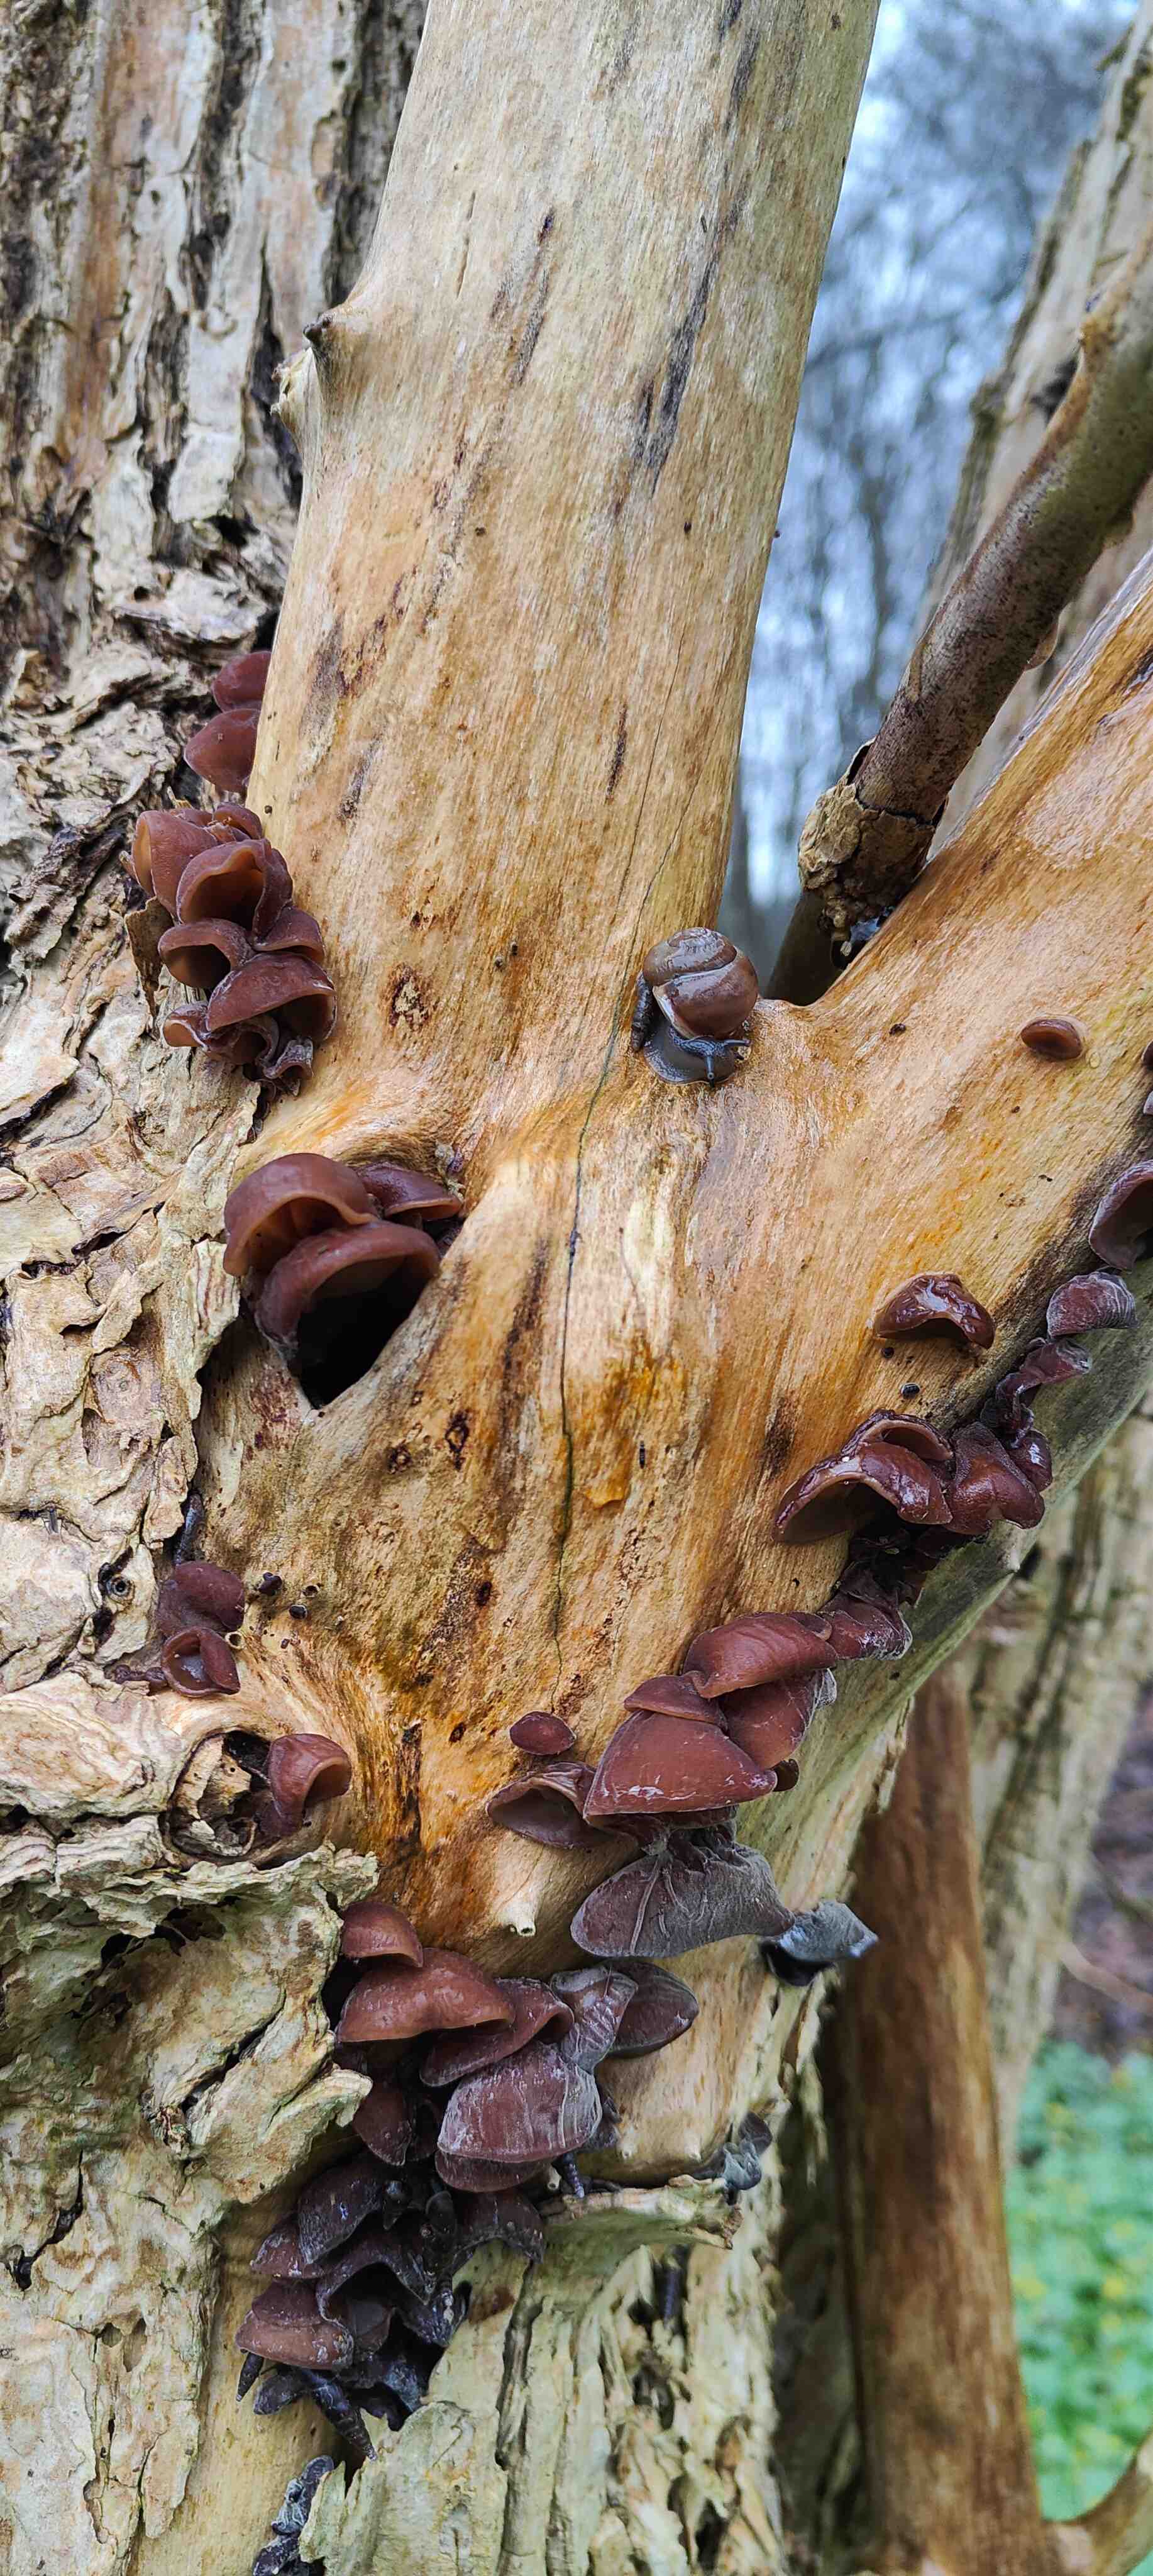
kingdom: Fungi
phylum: Basidiomycota
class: Agaricomycetes
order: Auriculariales
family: Auriculariaceae
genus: Auricularia
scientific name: Auricularia auricula-judae
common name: almindelig judasøre
